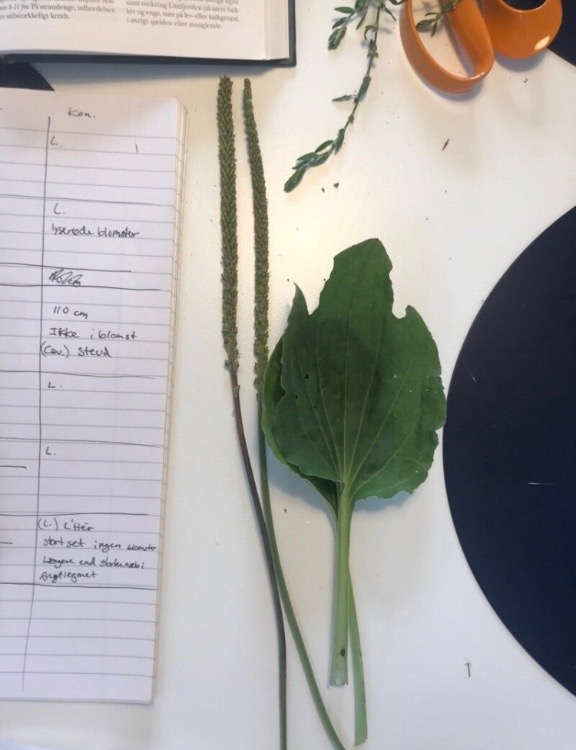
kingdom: Plantae
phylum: Tracheophyta
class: Magnoliopsida
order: Lamiales
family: Plantaginaceae
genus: Plantago
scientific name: Plantago major
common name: Glat vejbred
